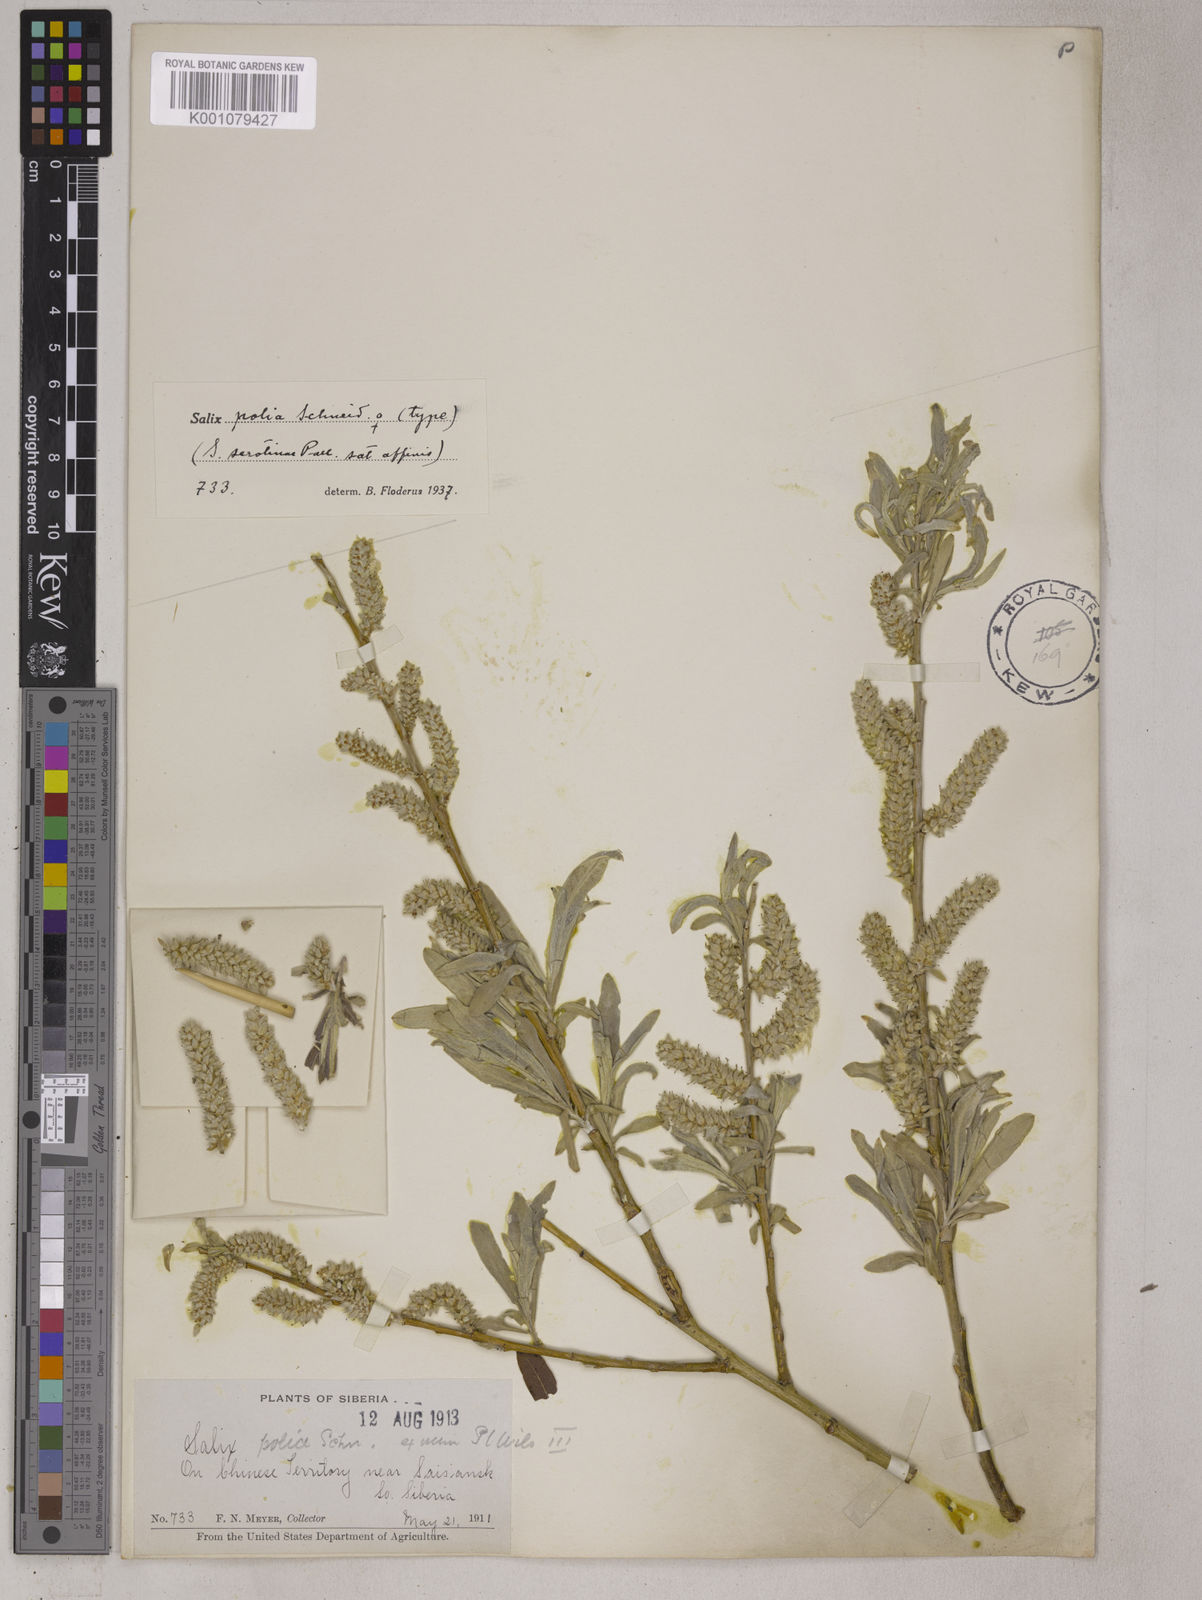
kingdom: Plantae
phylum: Tracheophyta
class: Magnoliopsida
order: Malpighiales
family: Salicaceae
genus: Salix
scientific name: Salix viminalis
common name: Osier
